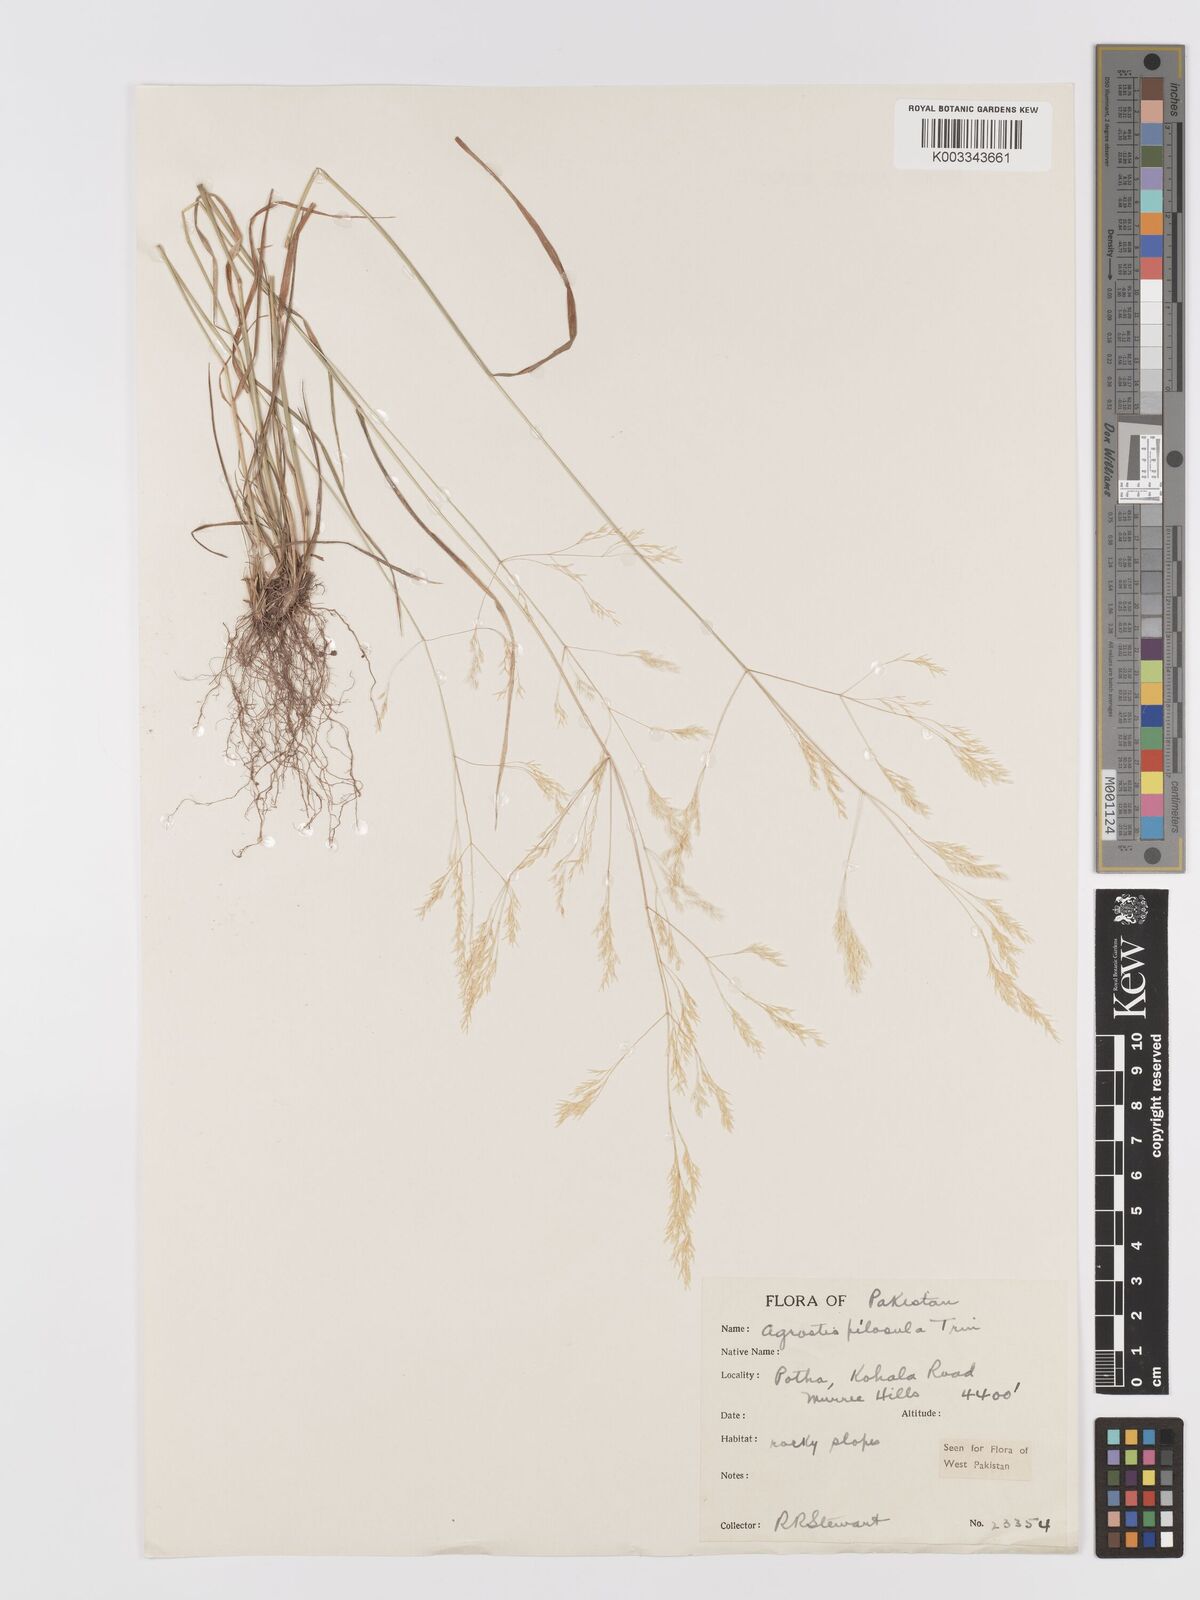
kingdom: Plantae
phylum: Tracheophyta
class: Liliopsida
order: Poales
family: Poaceae
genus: Agrostis
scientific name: Agrostis pilosula
